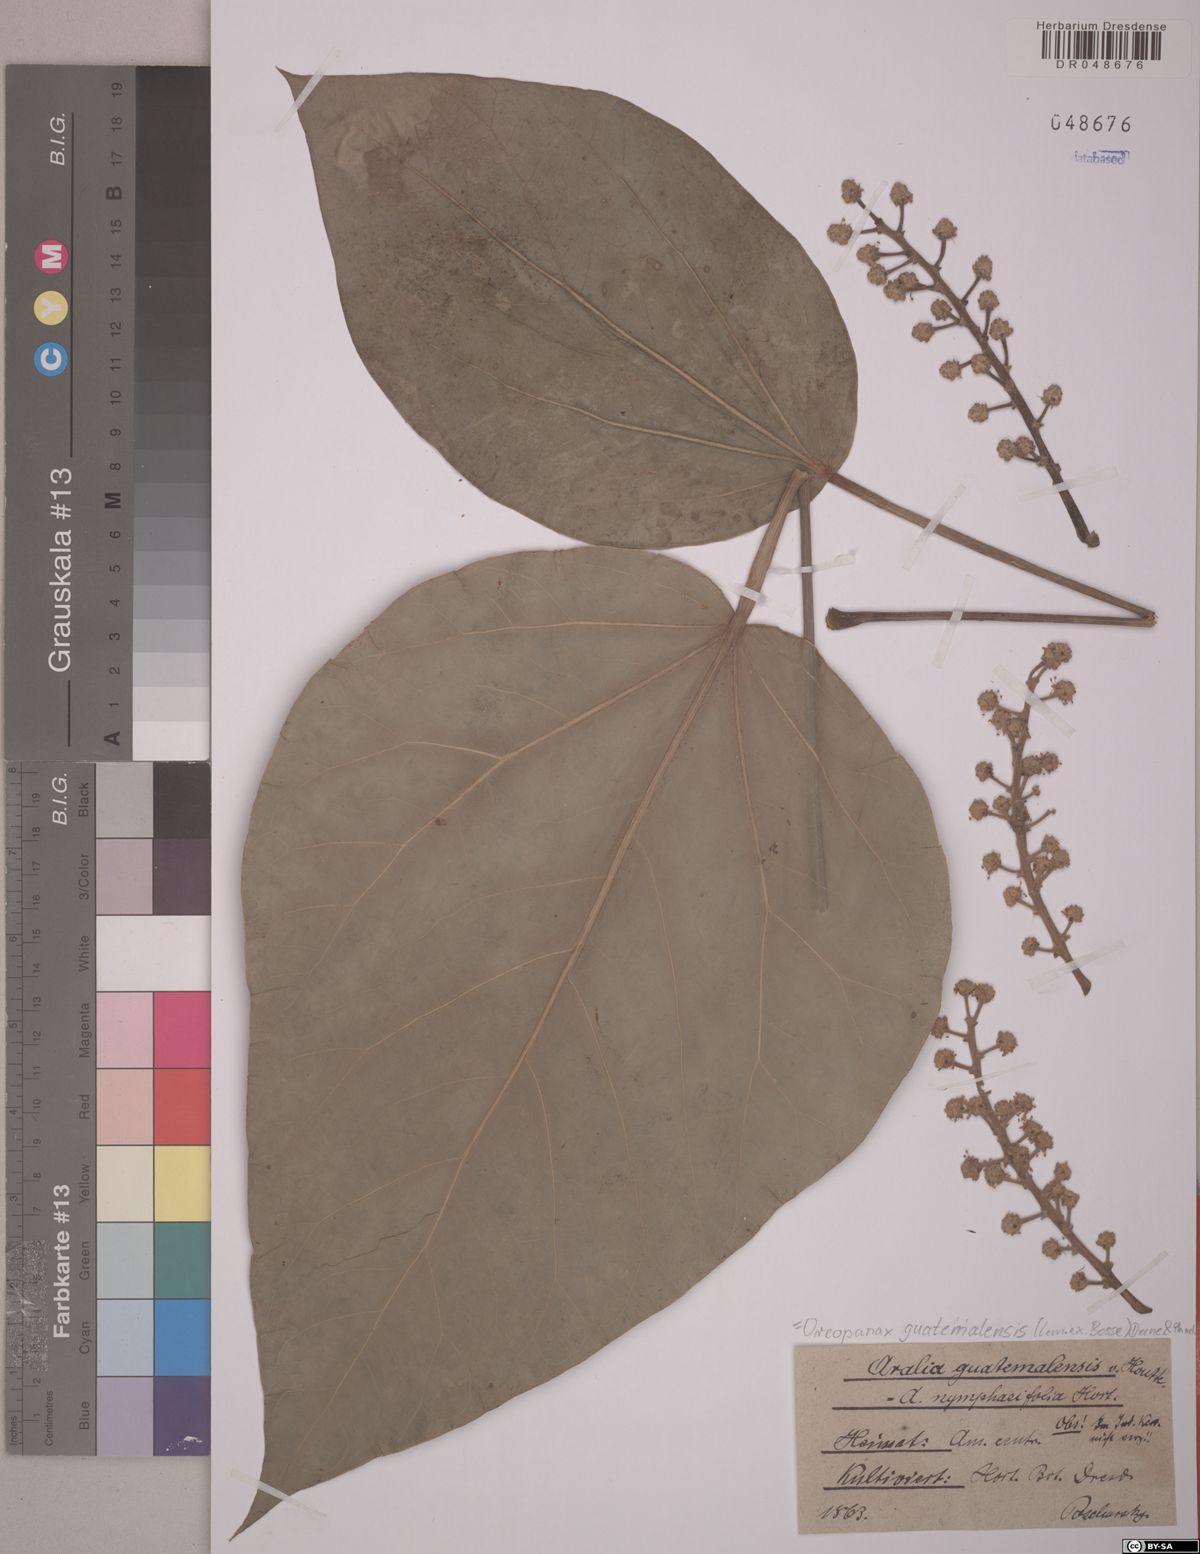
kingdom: Plantae
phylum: Tracheophyta
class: Magnoliopsida
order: Apiales
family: Araliaceae
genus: Oreopanax
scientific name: Oreopanax guatemalensis
